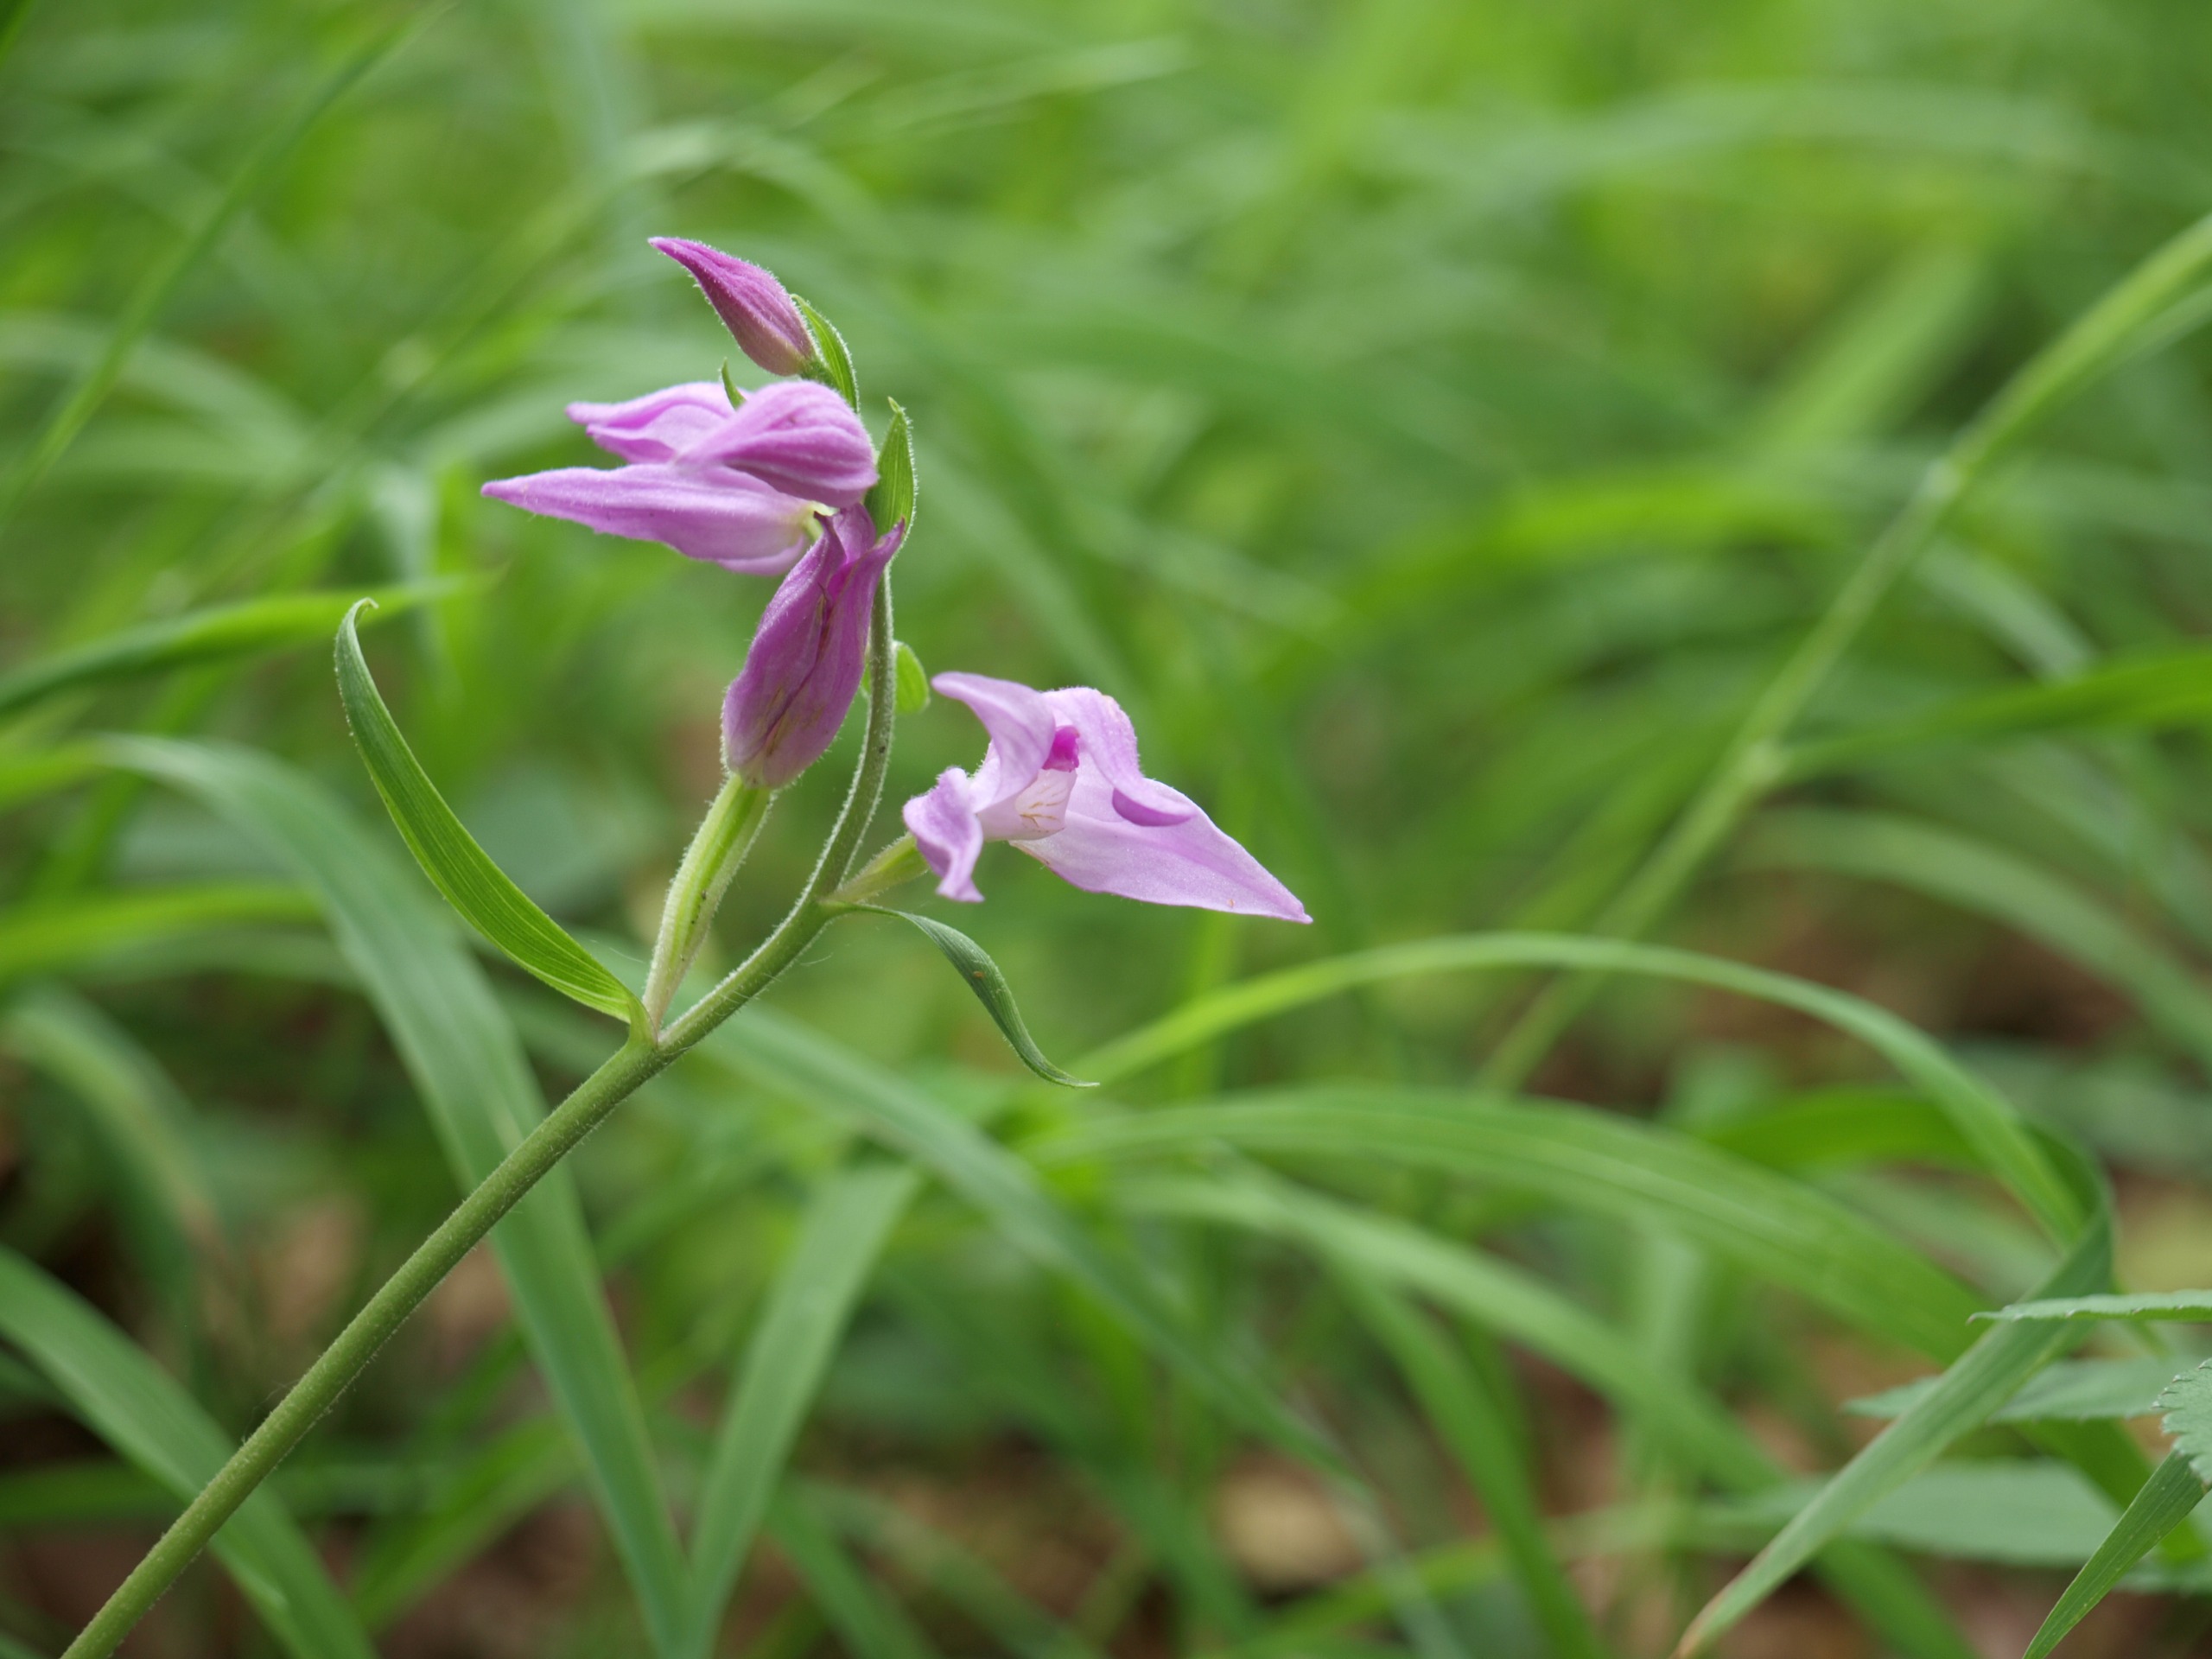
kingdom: Plantae
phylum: Tracheophyta
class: Liliopsida
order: Asparagales
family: Orchidaceae
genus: Cephalanthera
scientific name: Cephalanthera rubra
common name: Rød skovlilje
